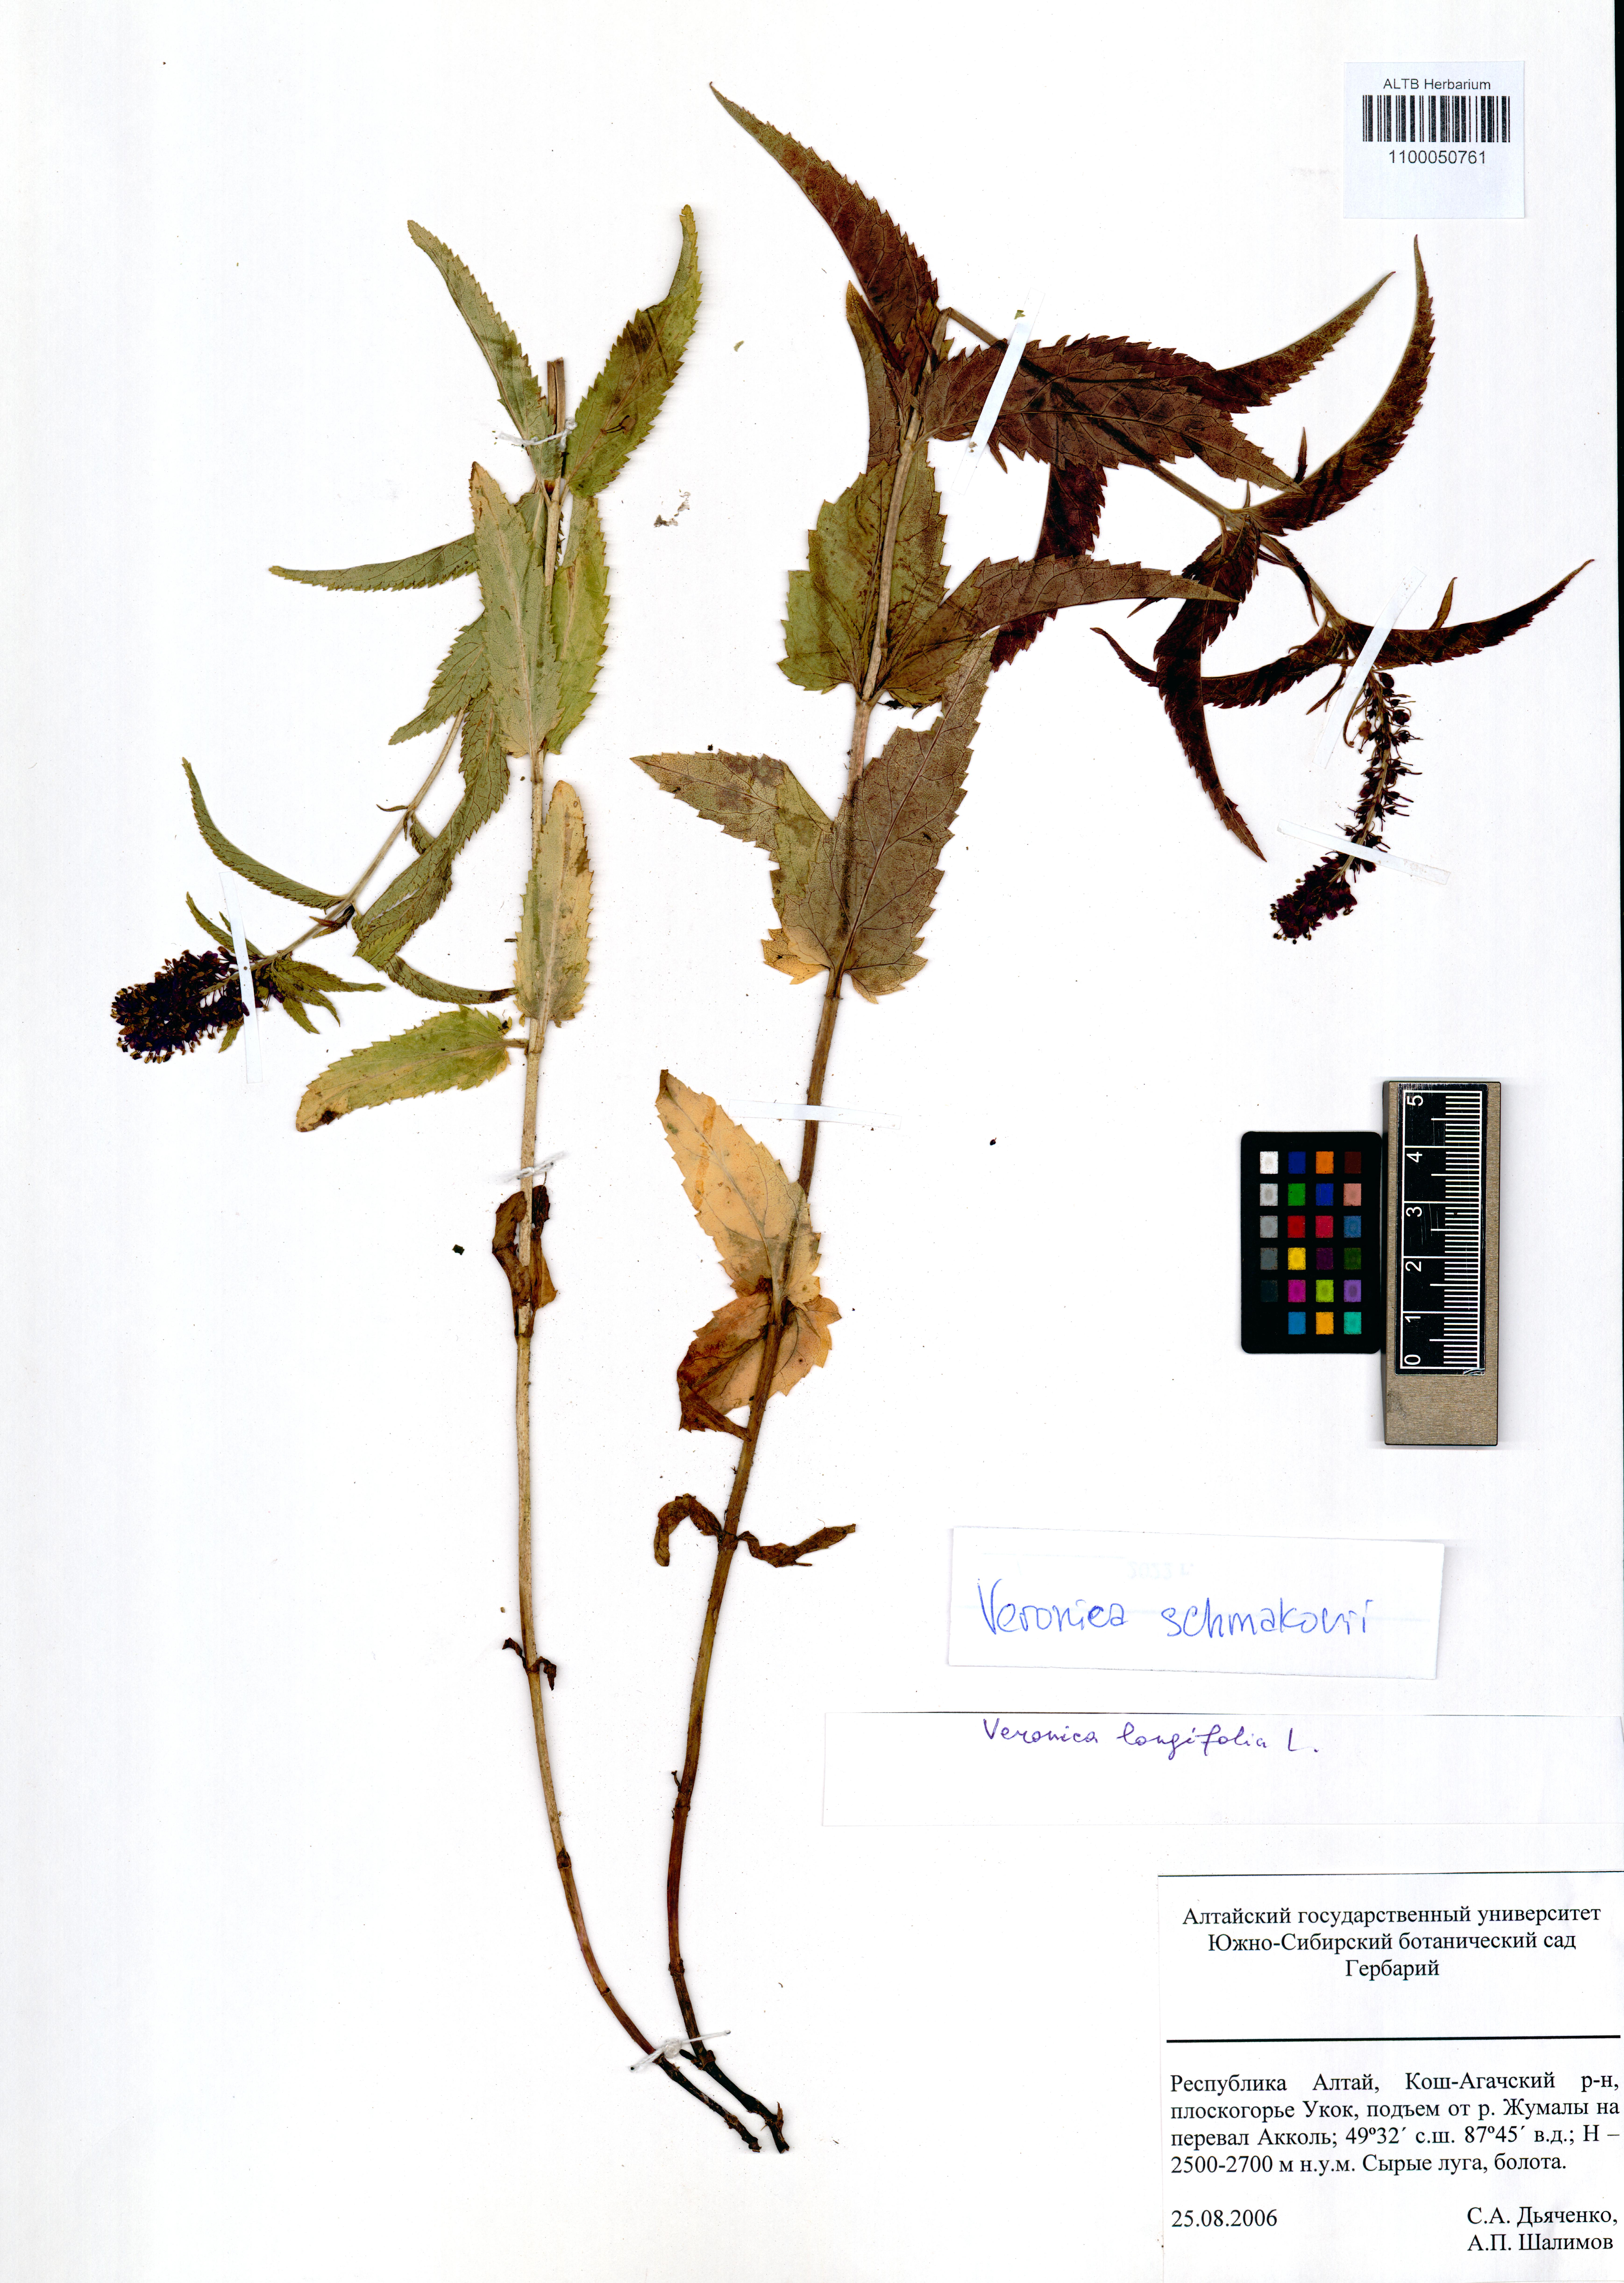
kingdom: Plantae
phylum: Tracheophyta
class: Magnoliopsida
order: Lamiales
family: Plantaginaceae
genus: Veronica
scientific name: Veronica schmakovii
